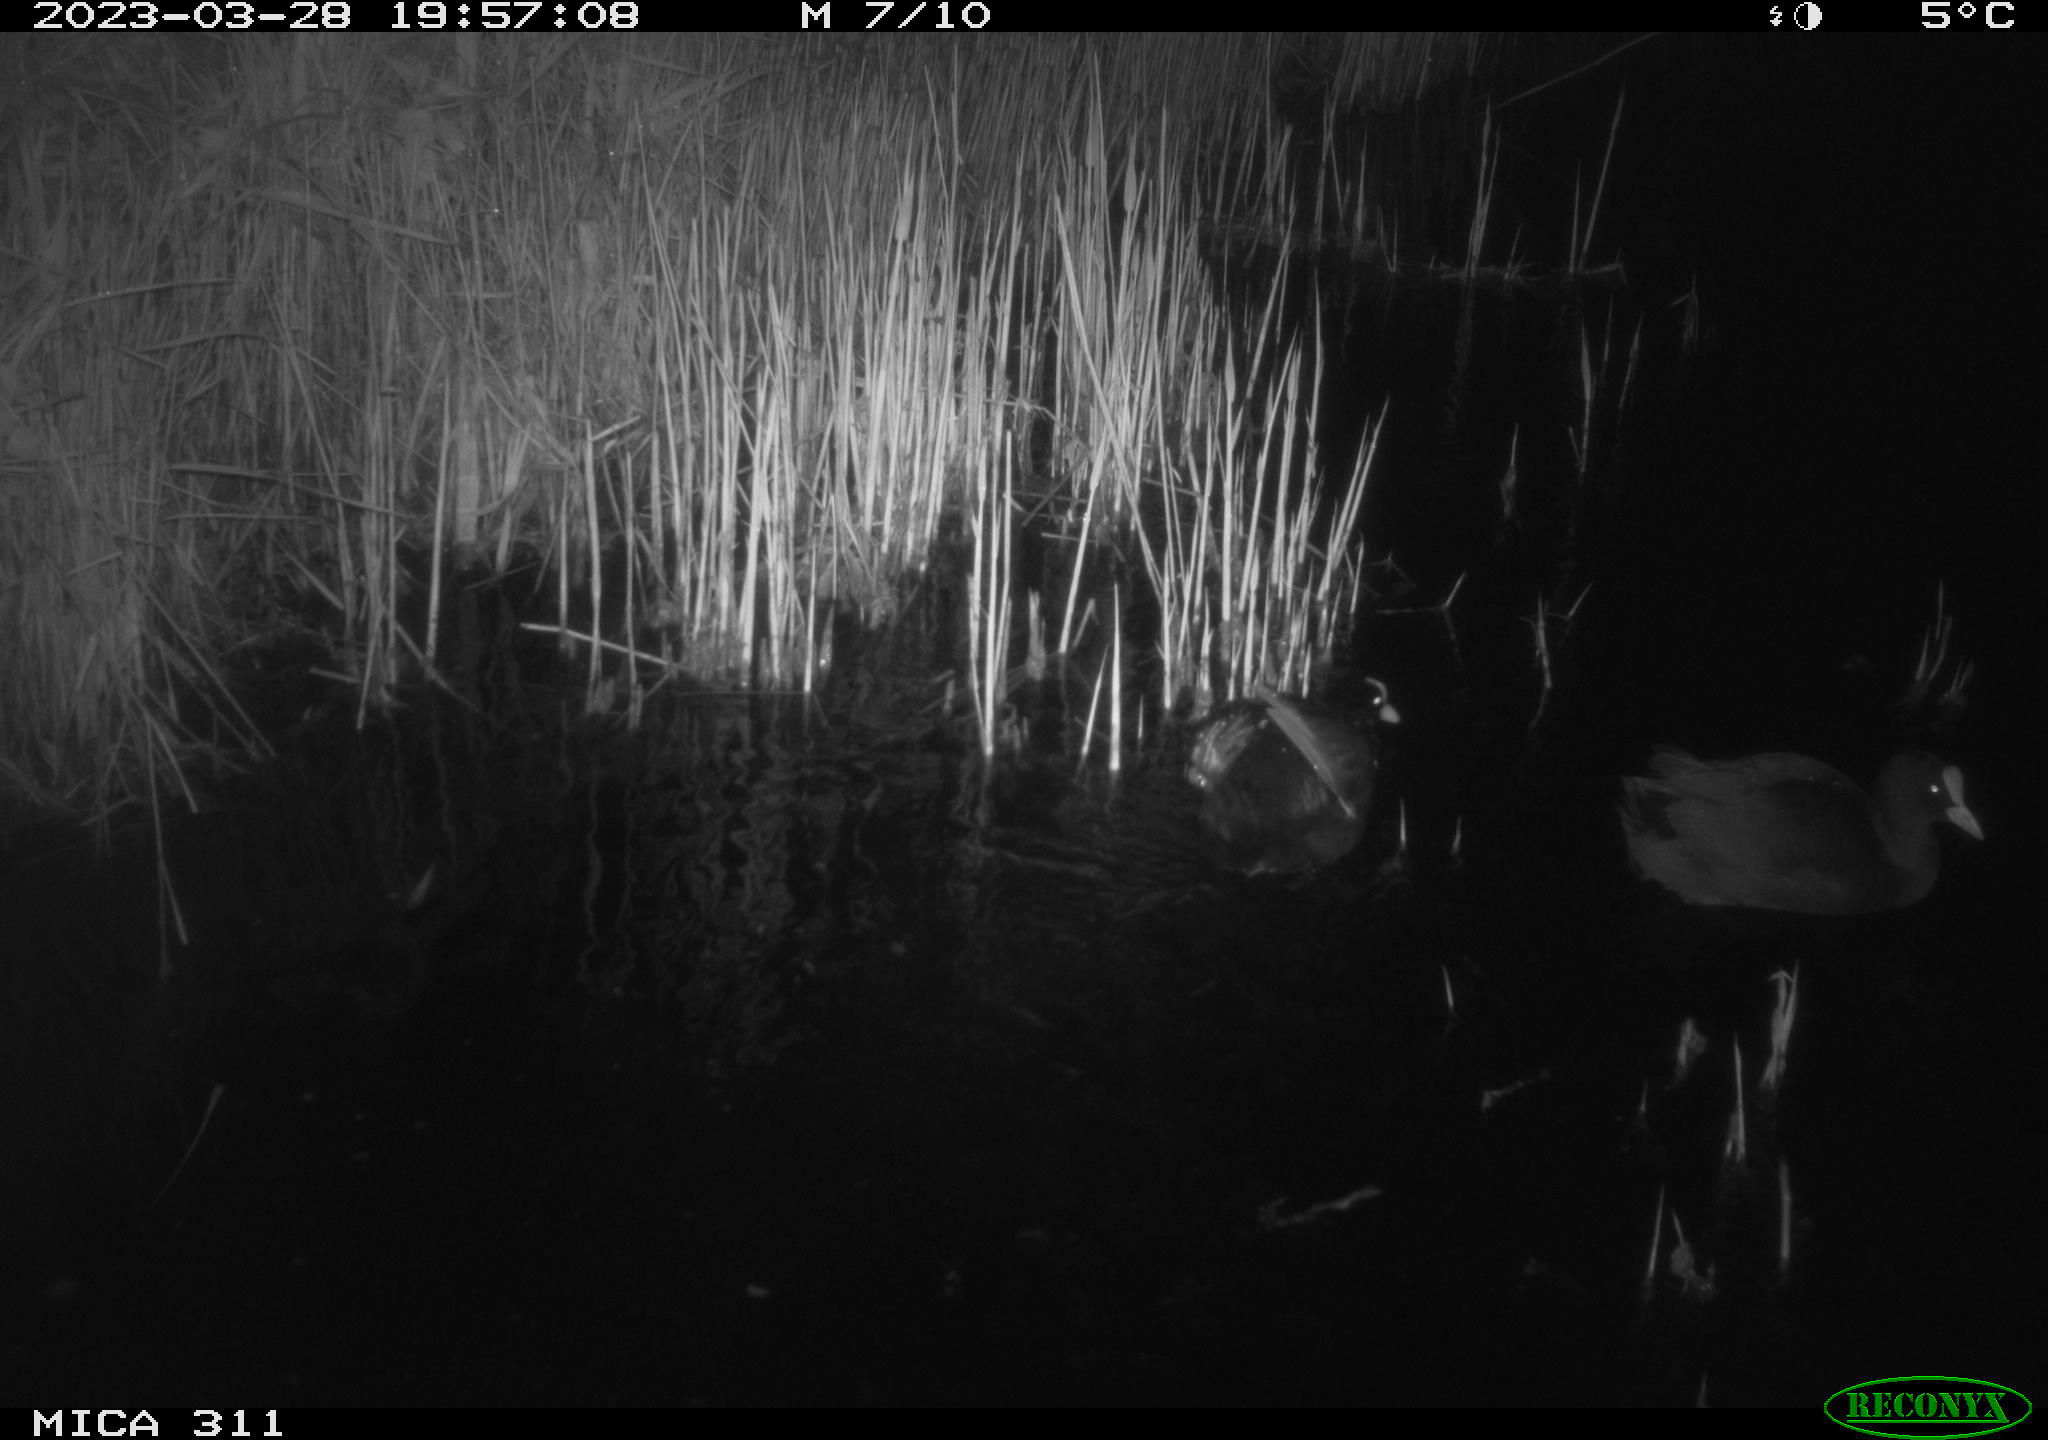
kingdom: Animalia
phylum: Chordata
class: Aves
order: Anseriformes
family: Anatidae
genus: Anas
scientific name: Anas
